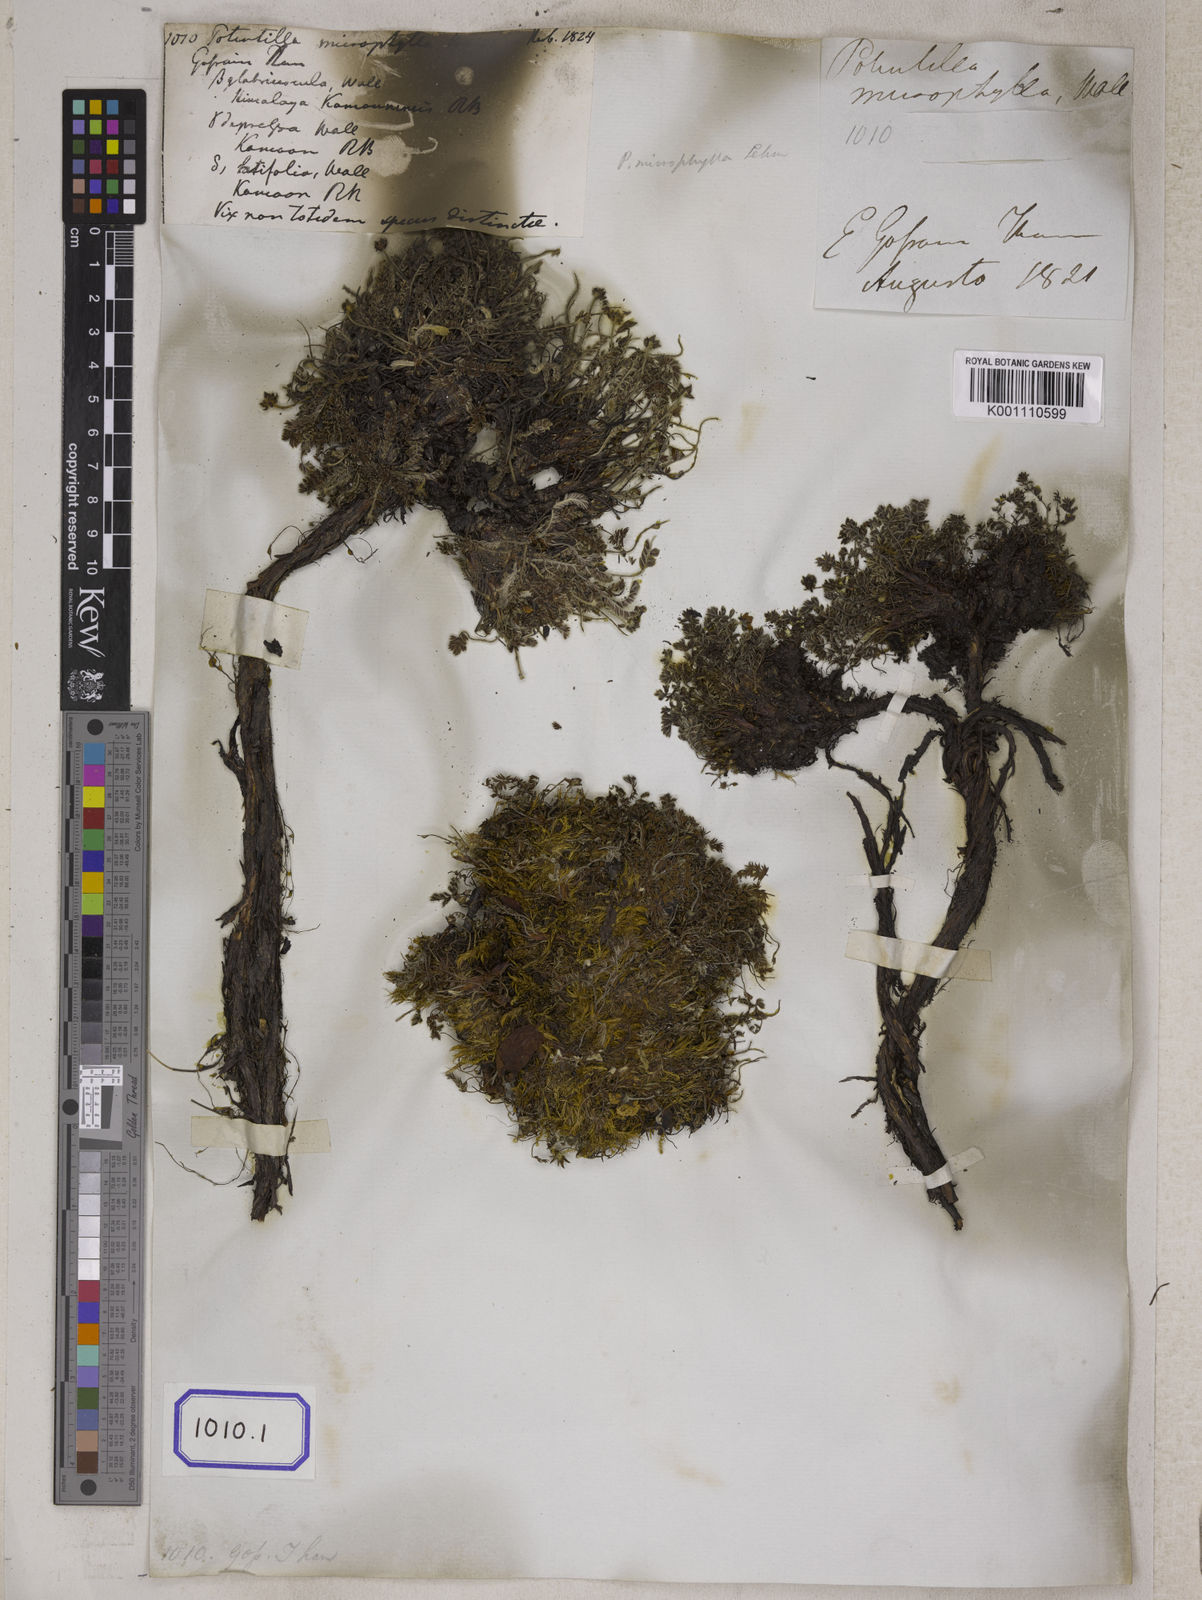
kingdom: Plantae
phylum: Tracheophyta
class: Magnoliopsida
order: Rosales
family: Rosaceae
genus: Potentilla
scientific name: Potentilla
